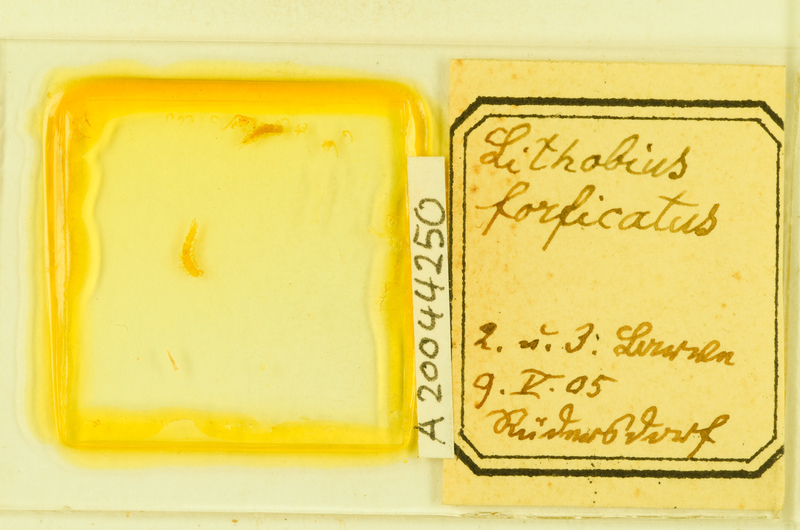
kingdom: Animalia
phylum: Arthropoda
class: Chilopoda
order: Lithobiomorpha
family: Lithobiidae
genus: Lithobius
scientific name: Lithobius forficatus
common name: Centipede
